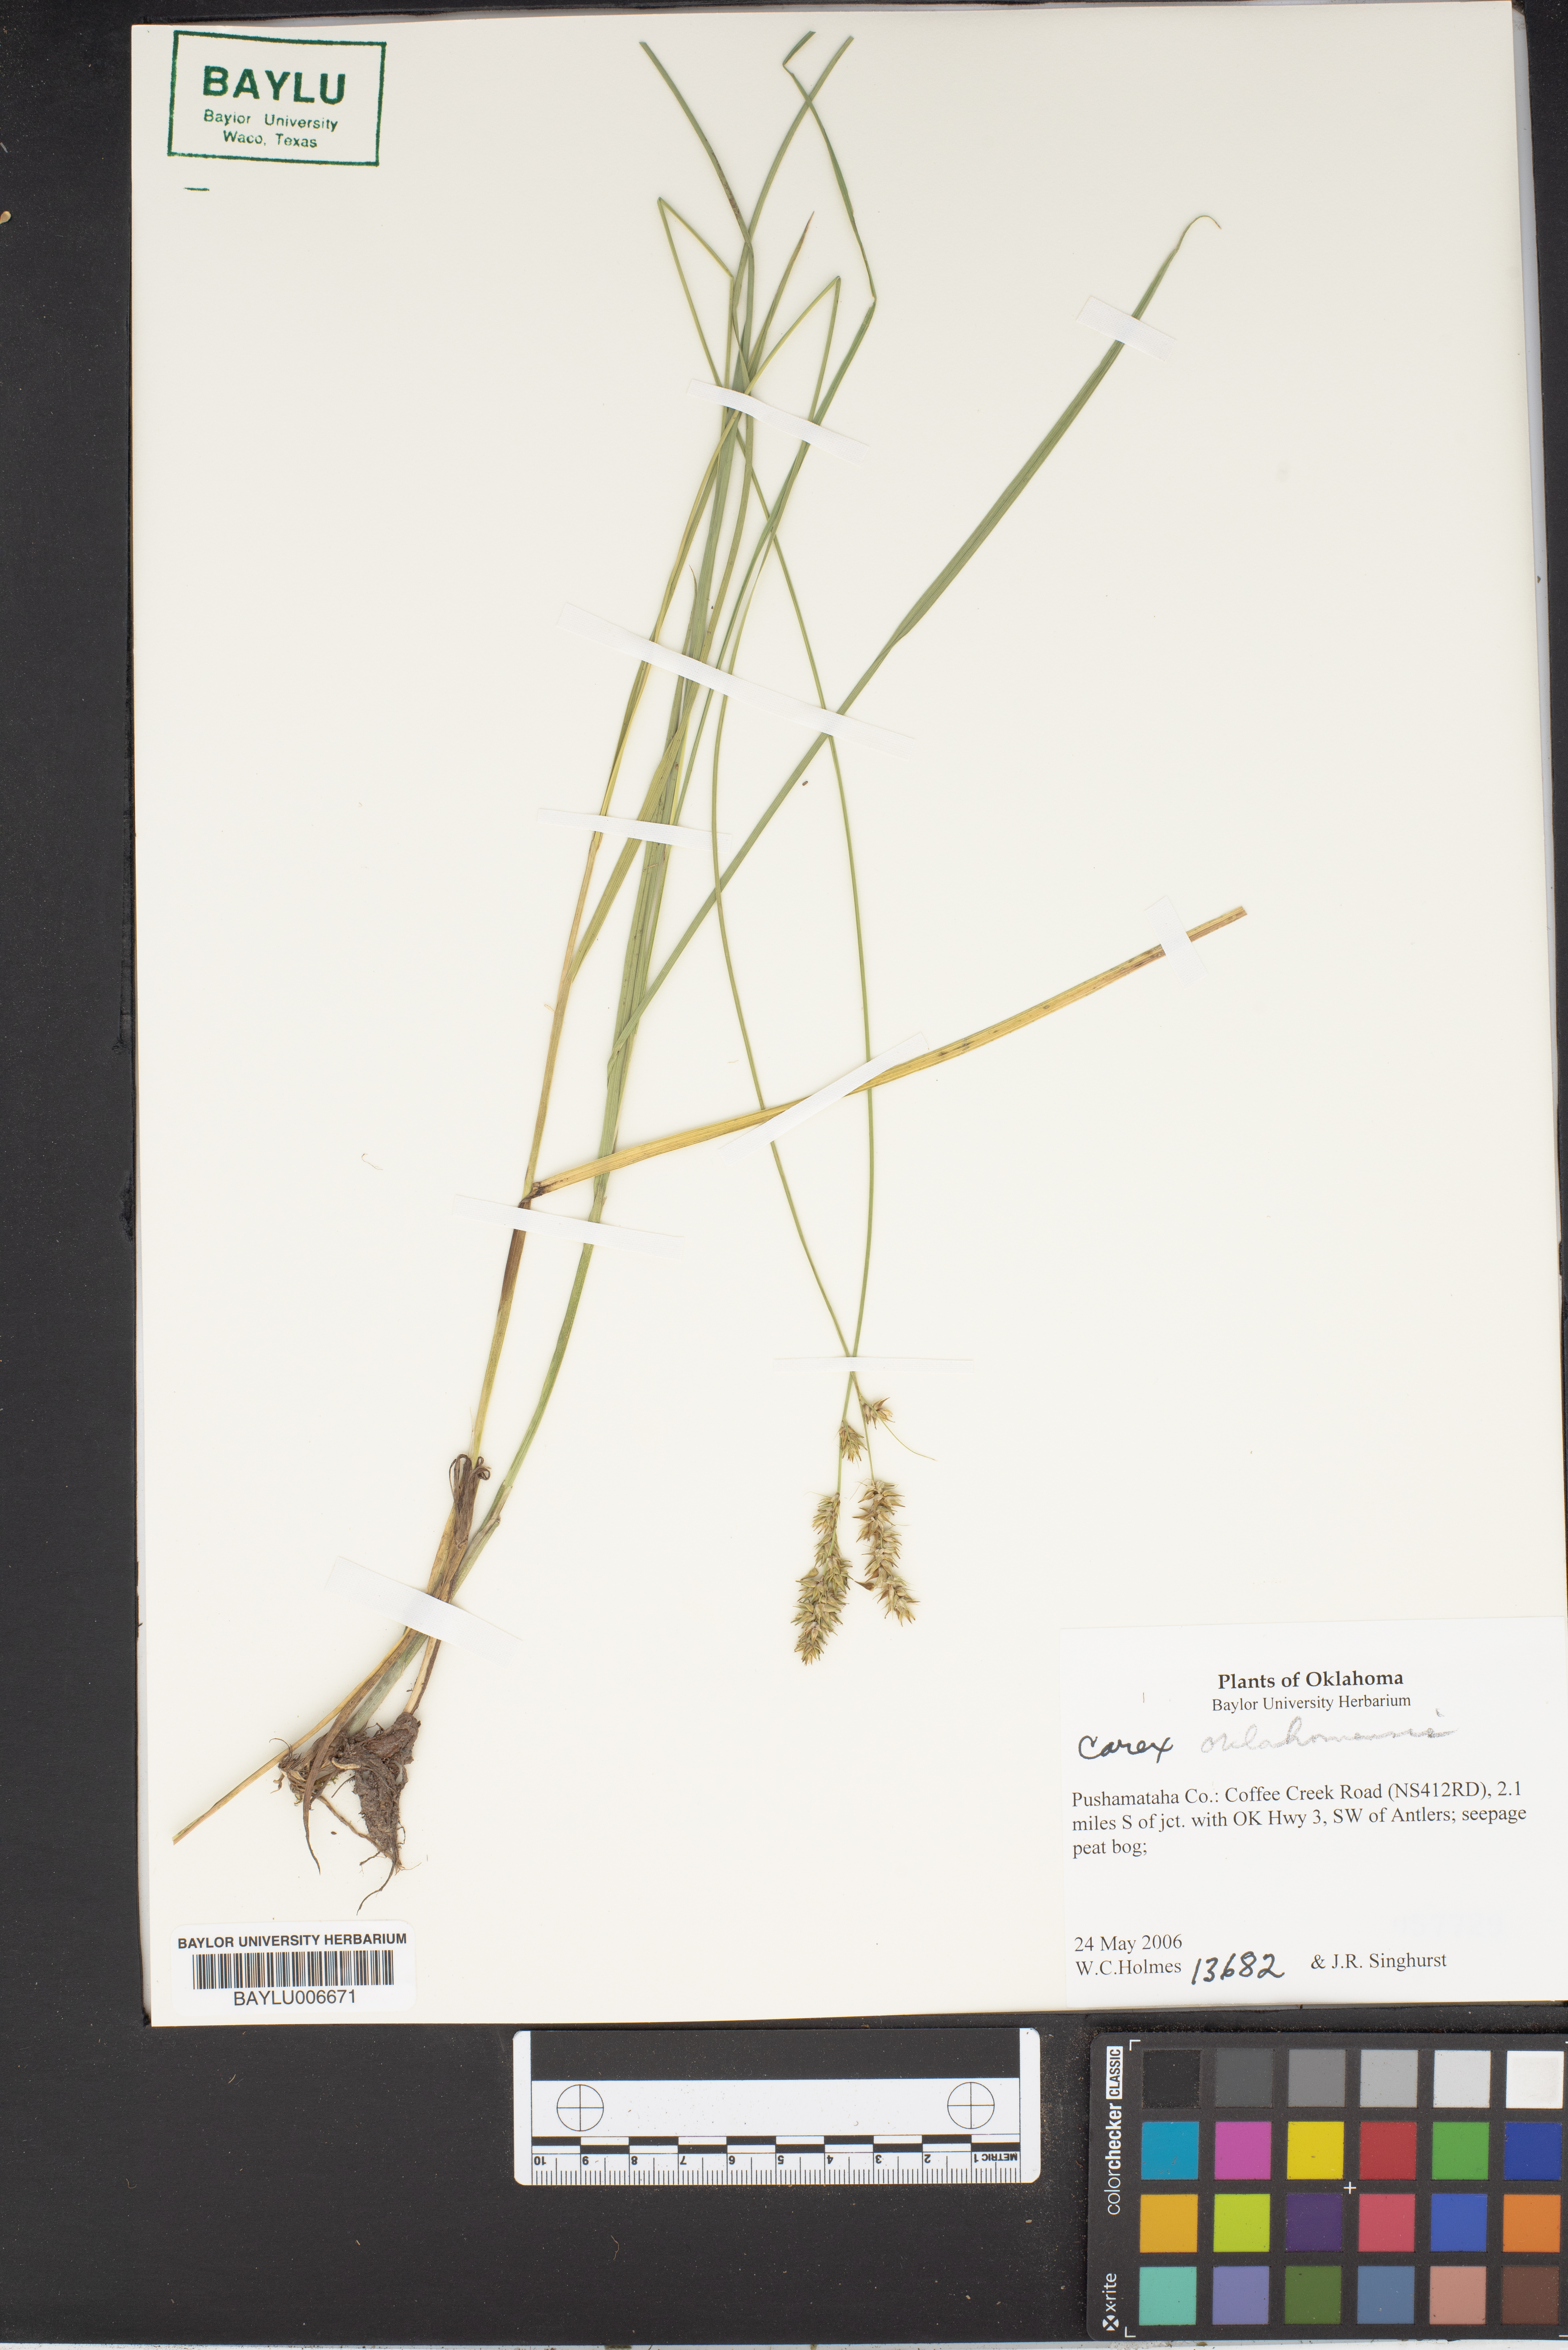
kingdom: Plantae
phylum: Tracheophyta
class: Liliopsida
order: Poales
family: Cyperaceae
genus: Carex
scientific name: Carex
